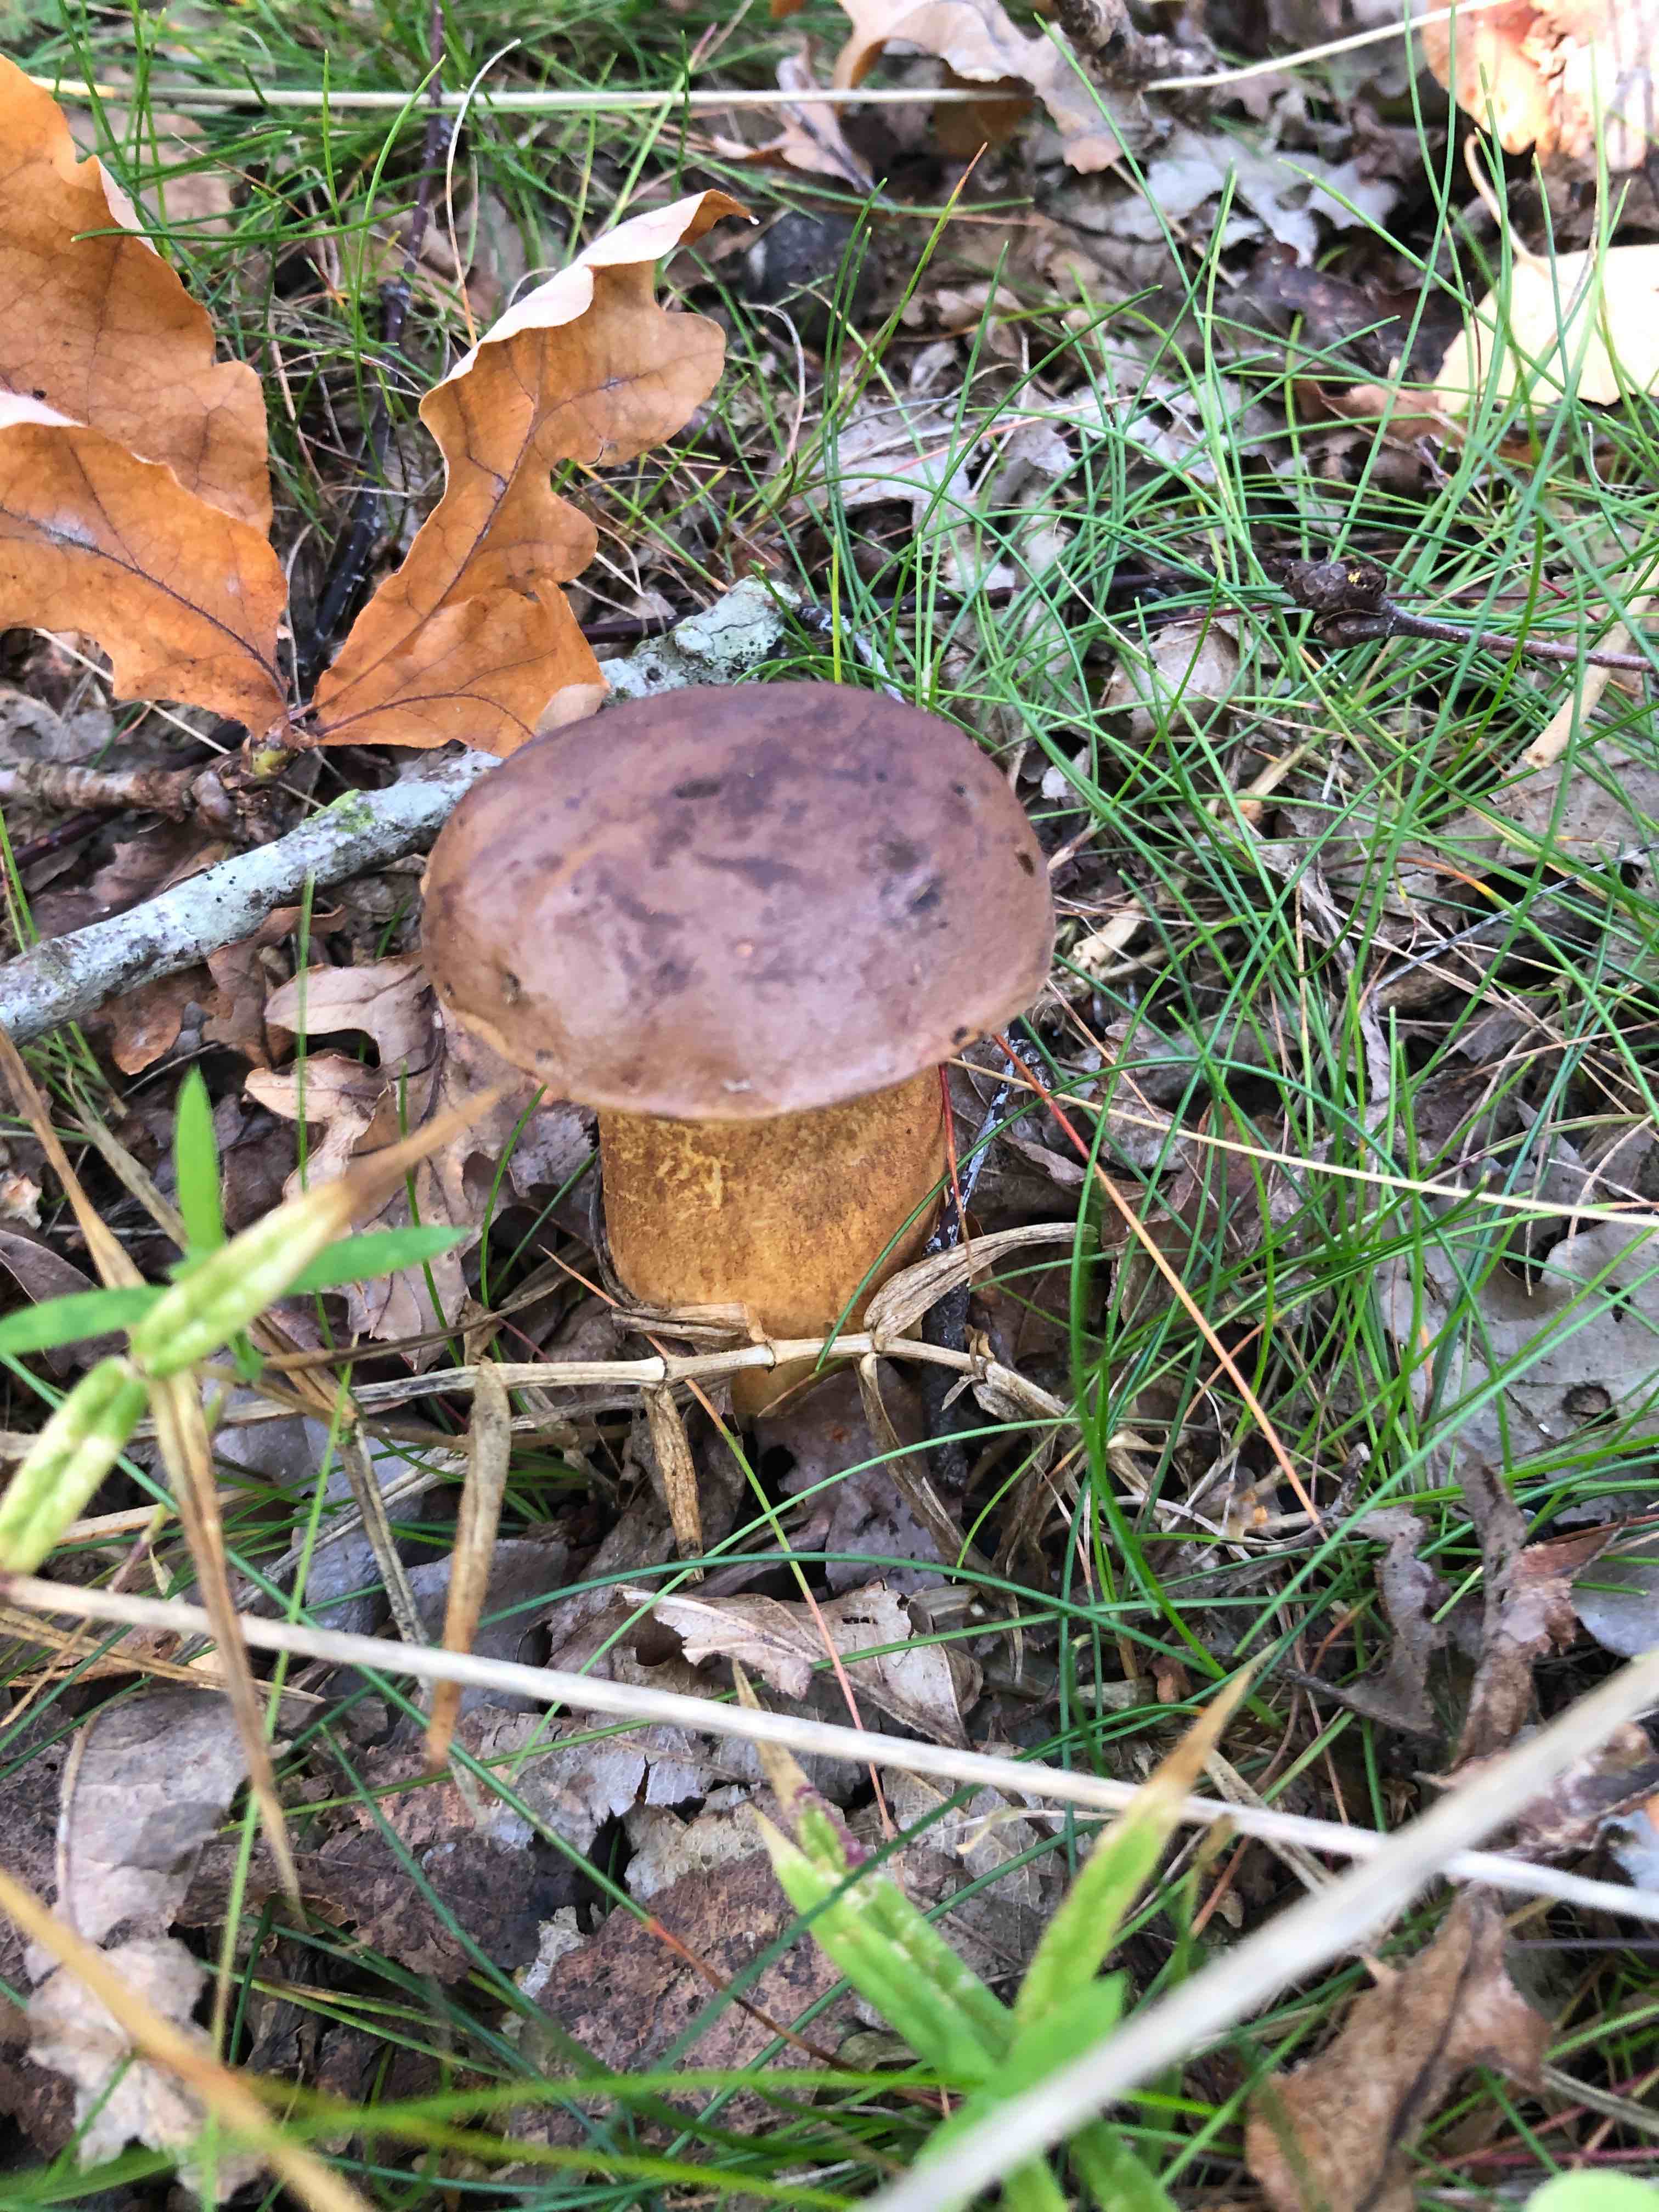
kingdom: Fungi
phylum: Basidiomycota
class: Agaricomycetes
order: Boletales
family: Boletaceae
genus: Imleria
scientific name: Imleria badia
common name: brunstokket rørhat
